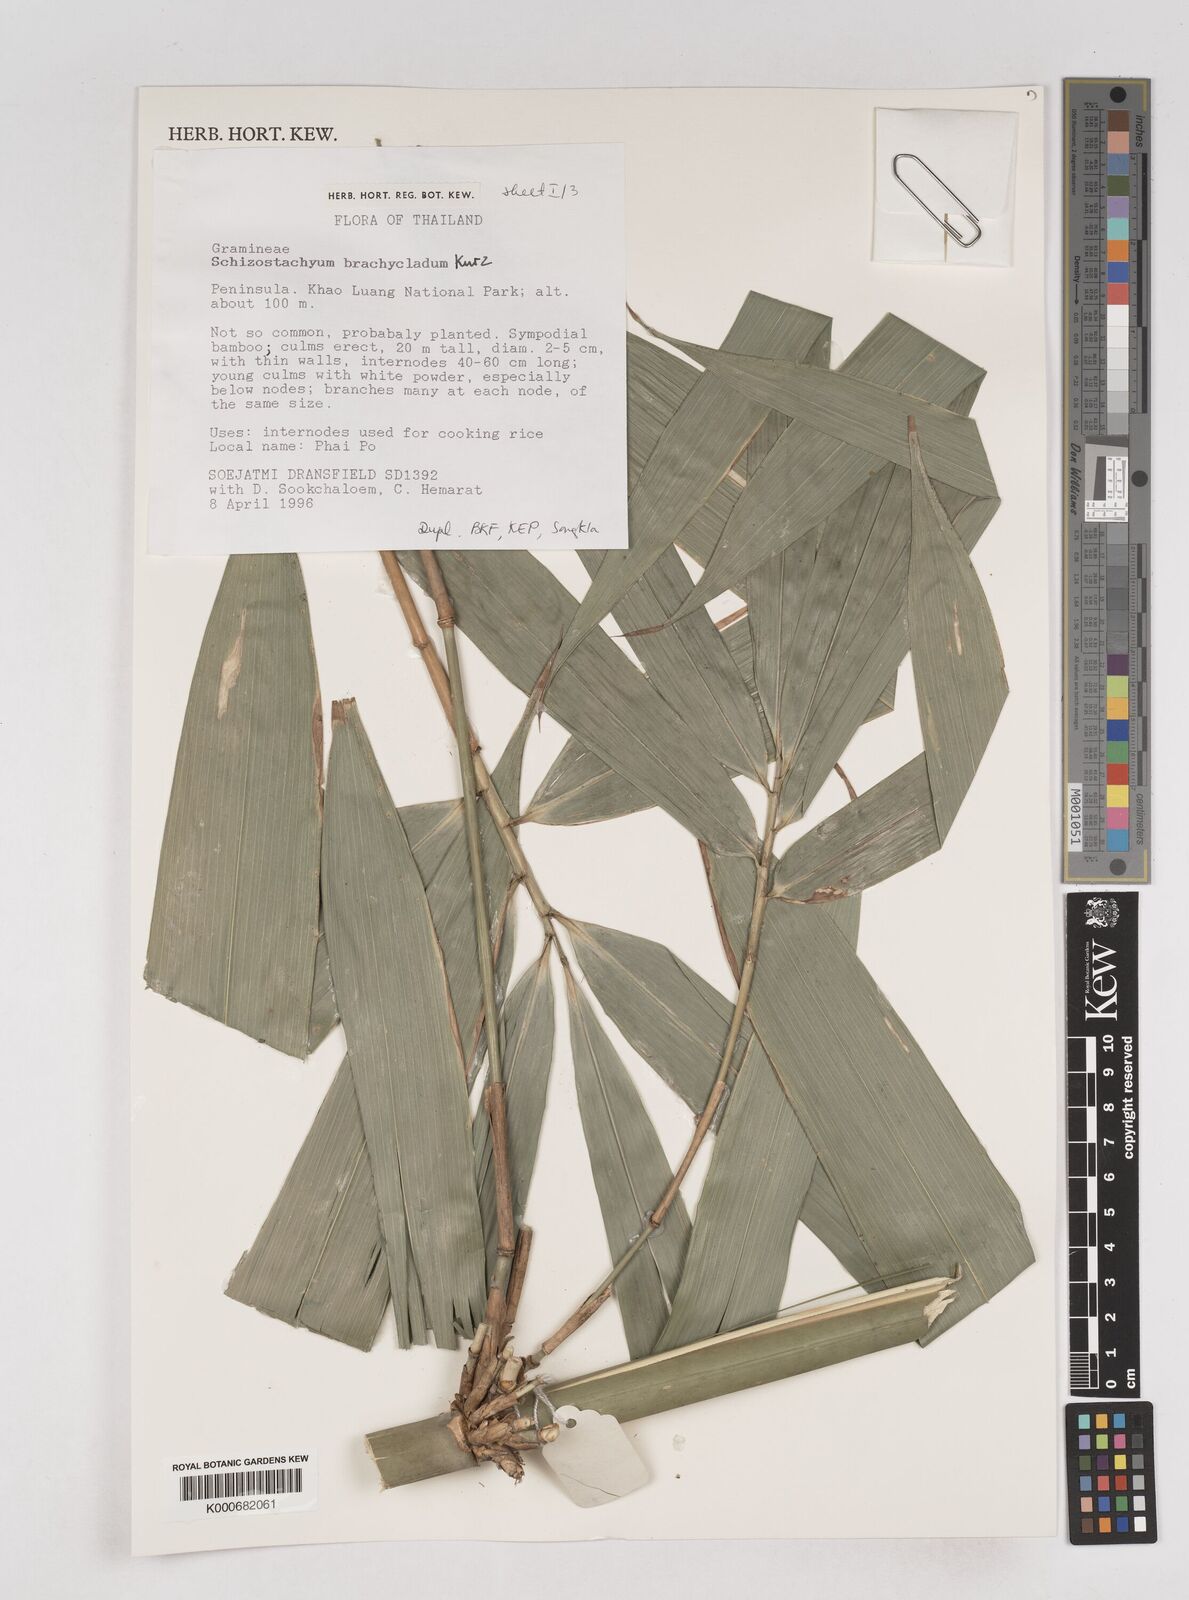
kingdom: Plantae
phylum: Tracheophyta
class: Liliopsida
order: Poales
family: Poaceae
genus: Schizostachyum
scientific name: Schizostachyum brachycladum
